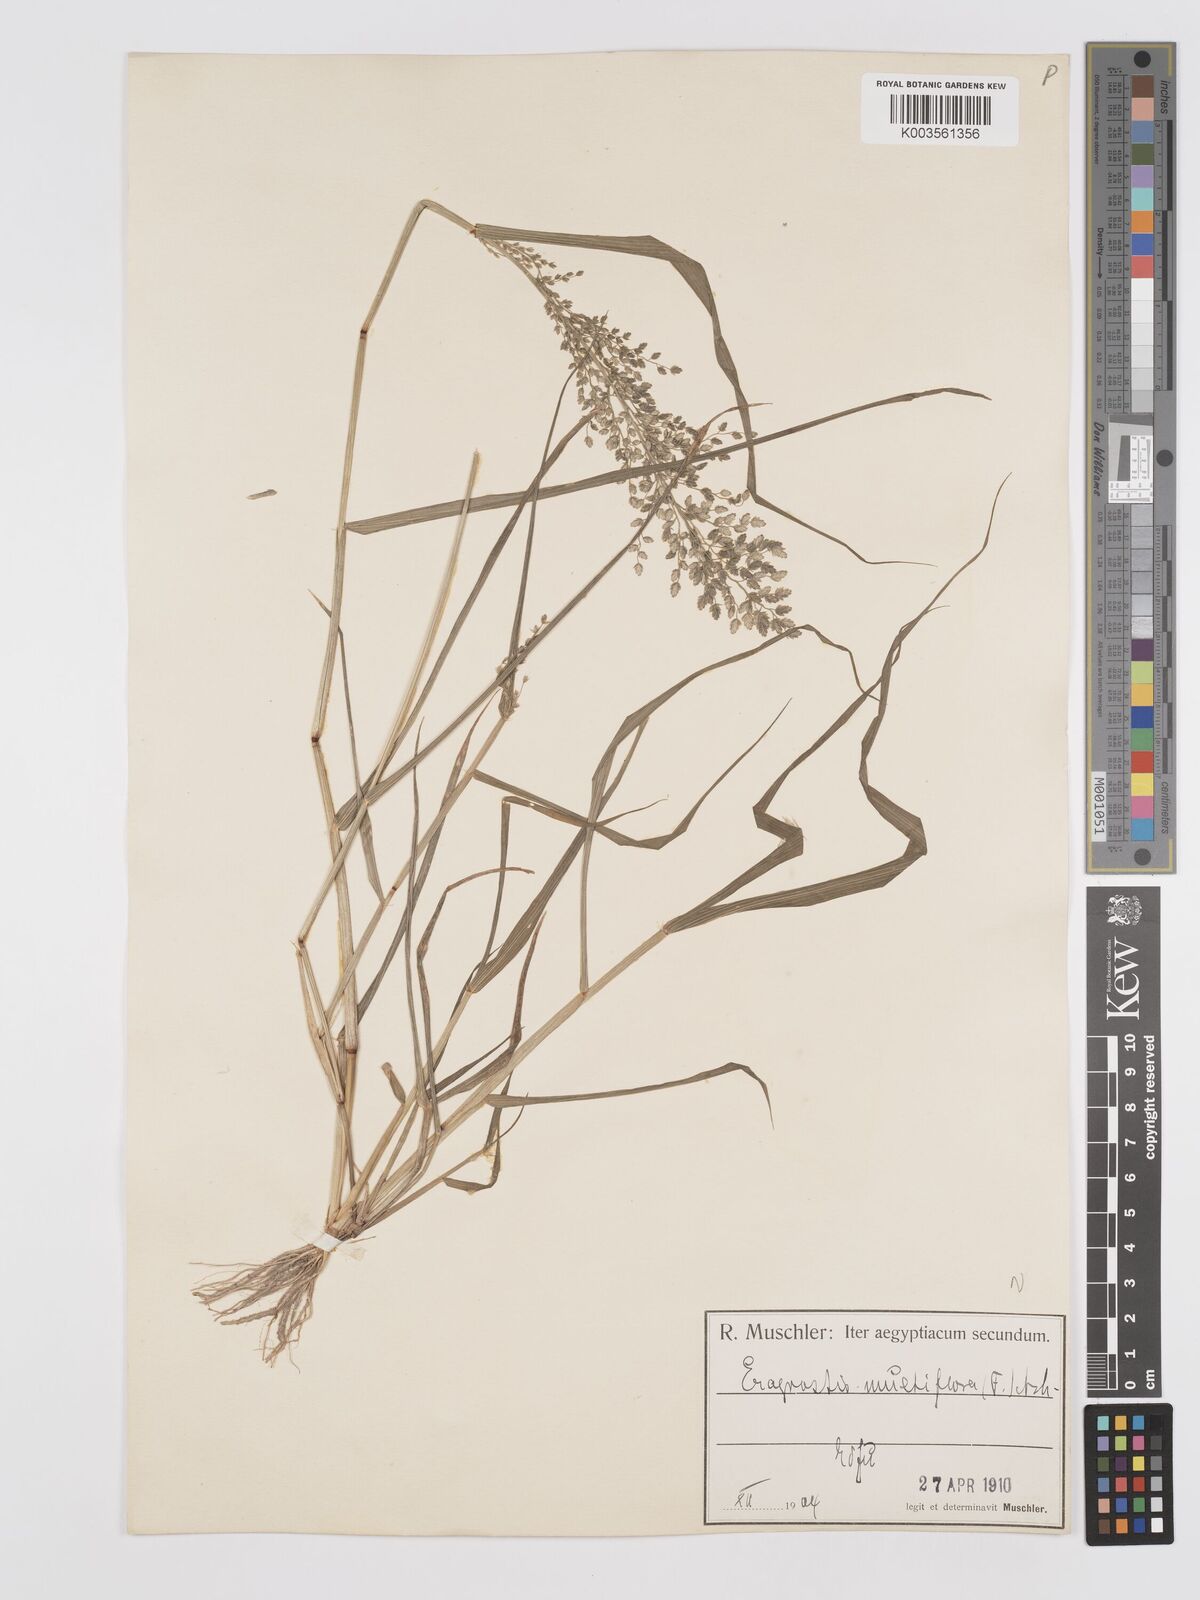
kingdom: Plantae
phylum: Tracheophyta
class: Liliopsida
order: Poales
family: Poaceae
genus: Eragrostis
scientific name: Eragrostis cilianensis
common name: Stinkgrass
